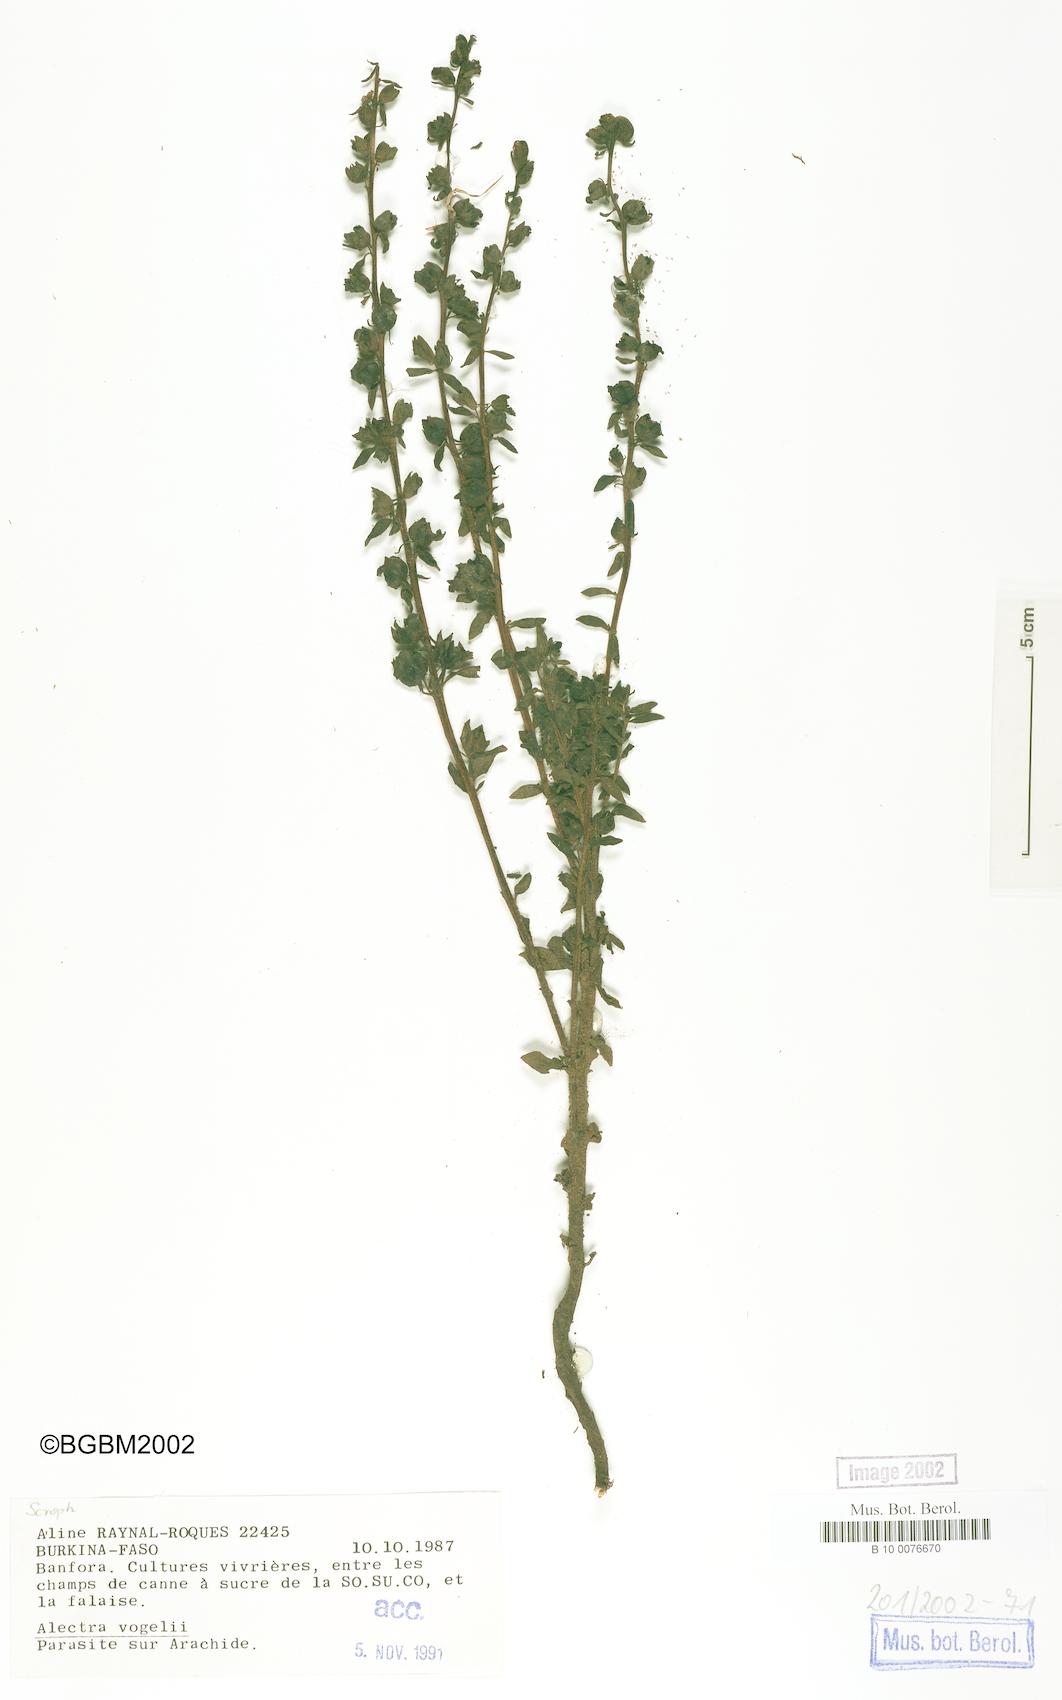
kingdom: Plantae
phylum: Tracheophyta
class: Magnoliopsida
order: Lamiales
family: Orobanchaceae
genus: Alectra
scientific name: Alectra vogelii
